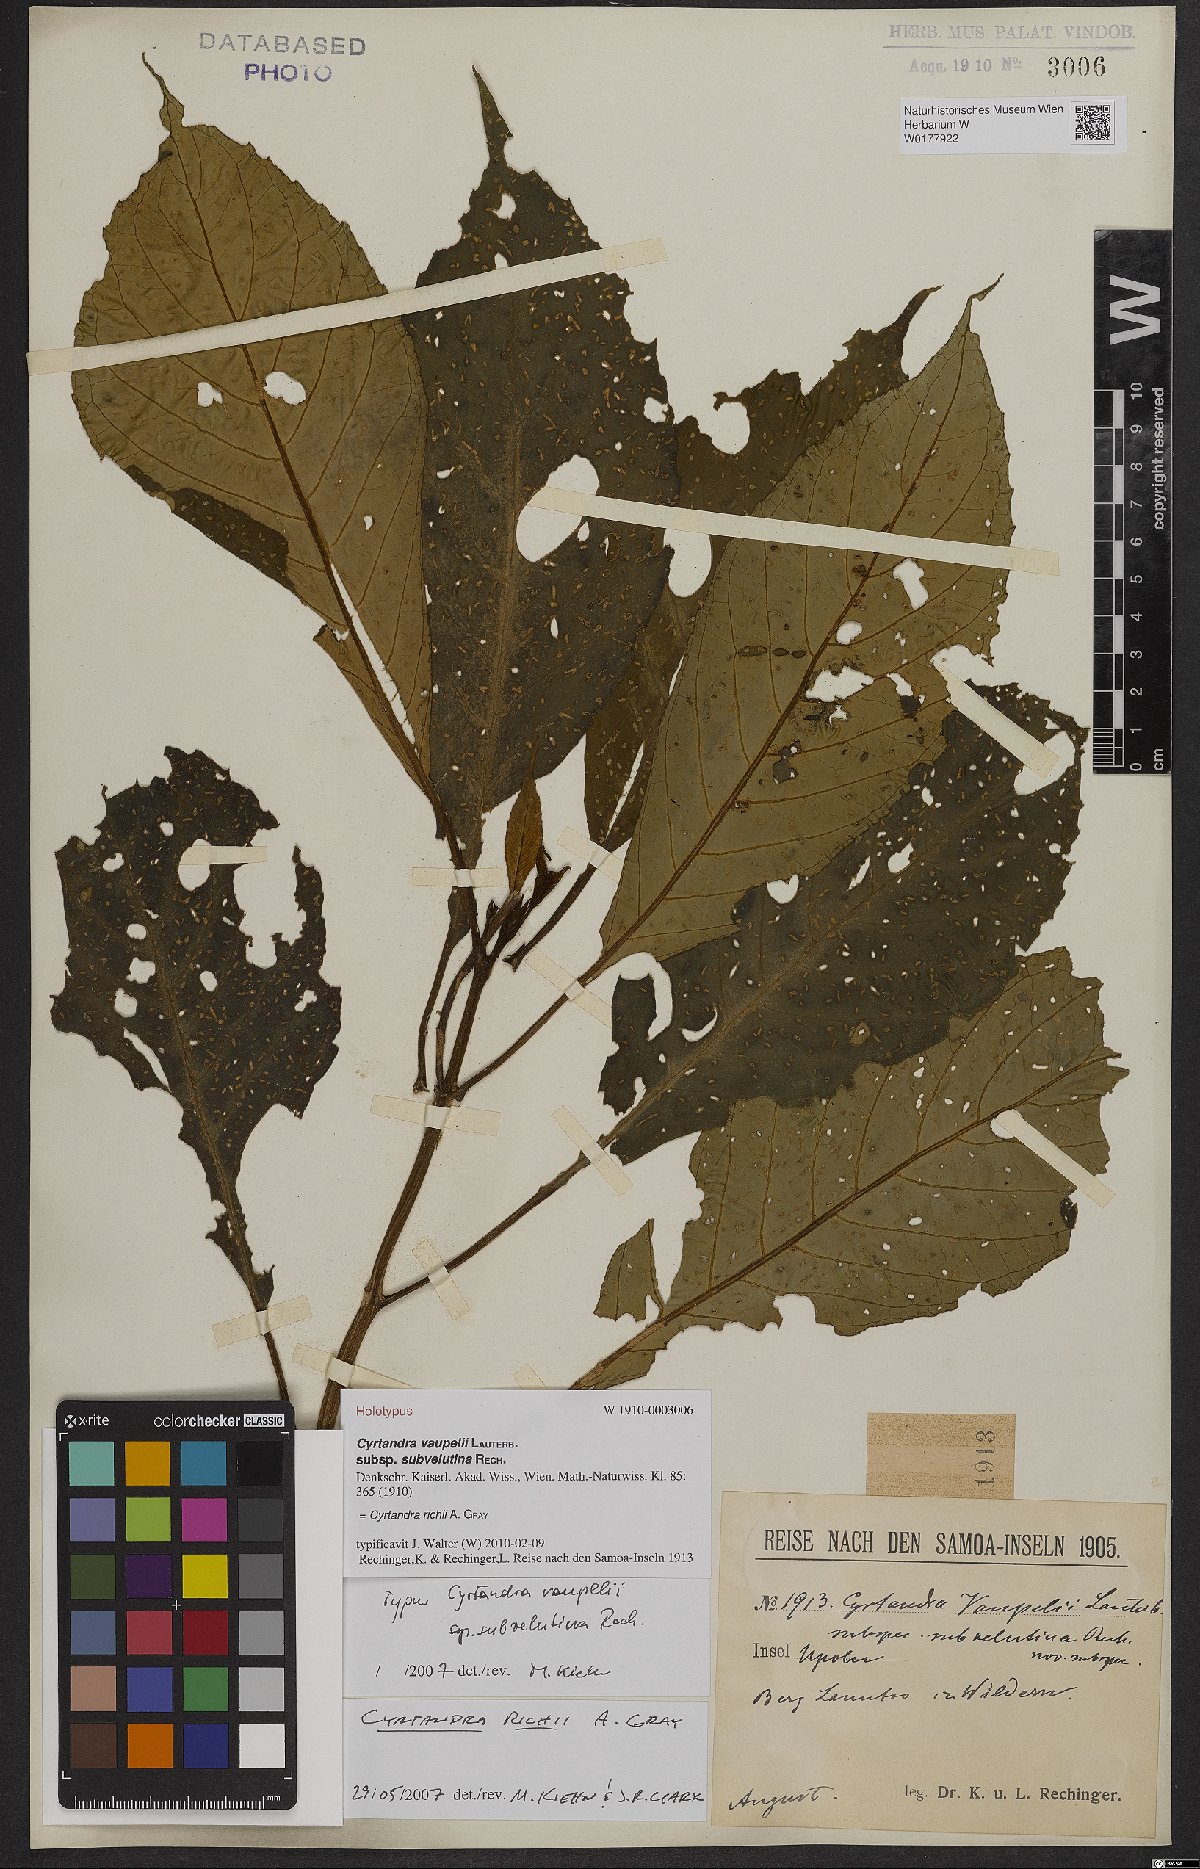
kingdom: Plantae
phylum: Tracheophyta
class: Magnoliopsida
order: Lamiales
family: Gesneriaceae
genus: Cyrtandra
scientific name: Cyrtandra richii
